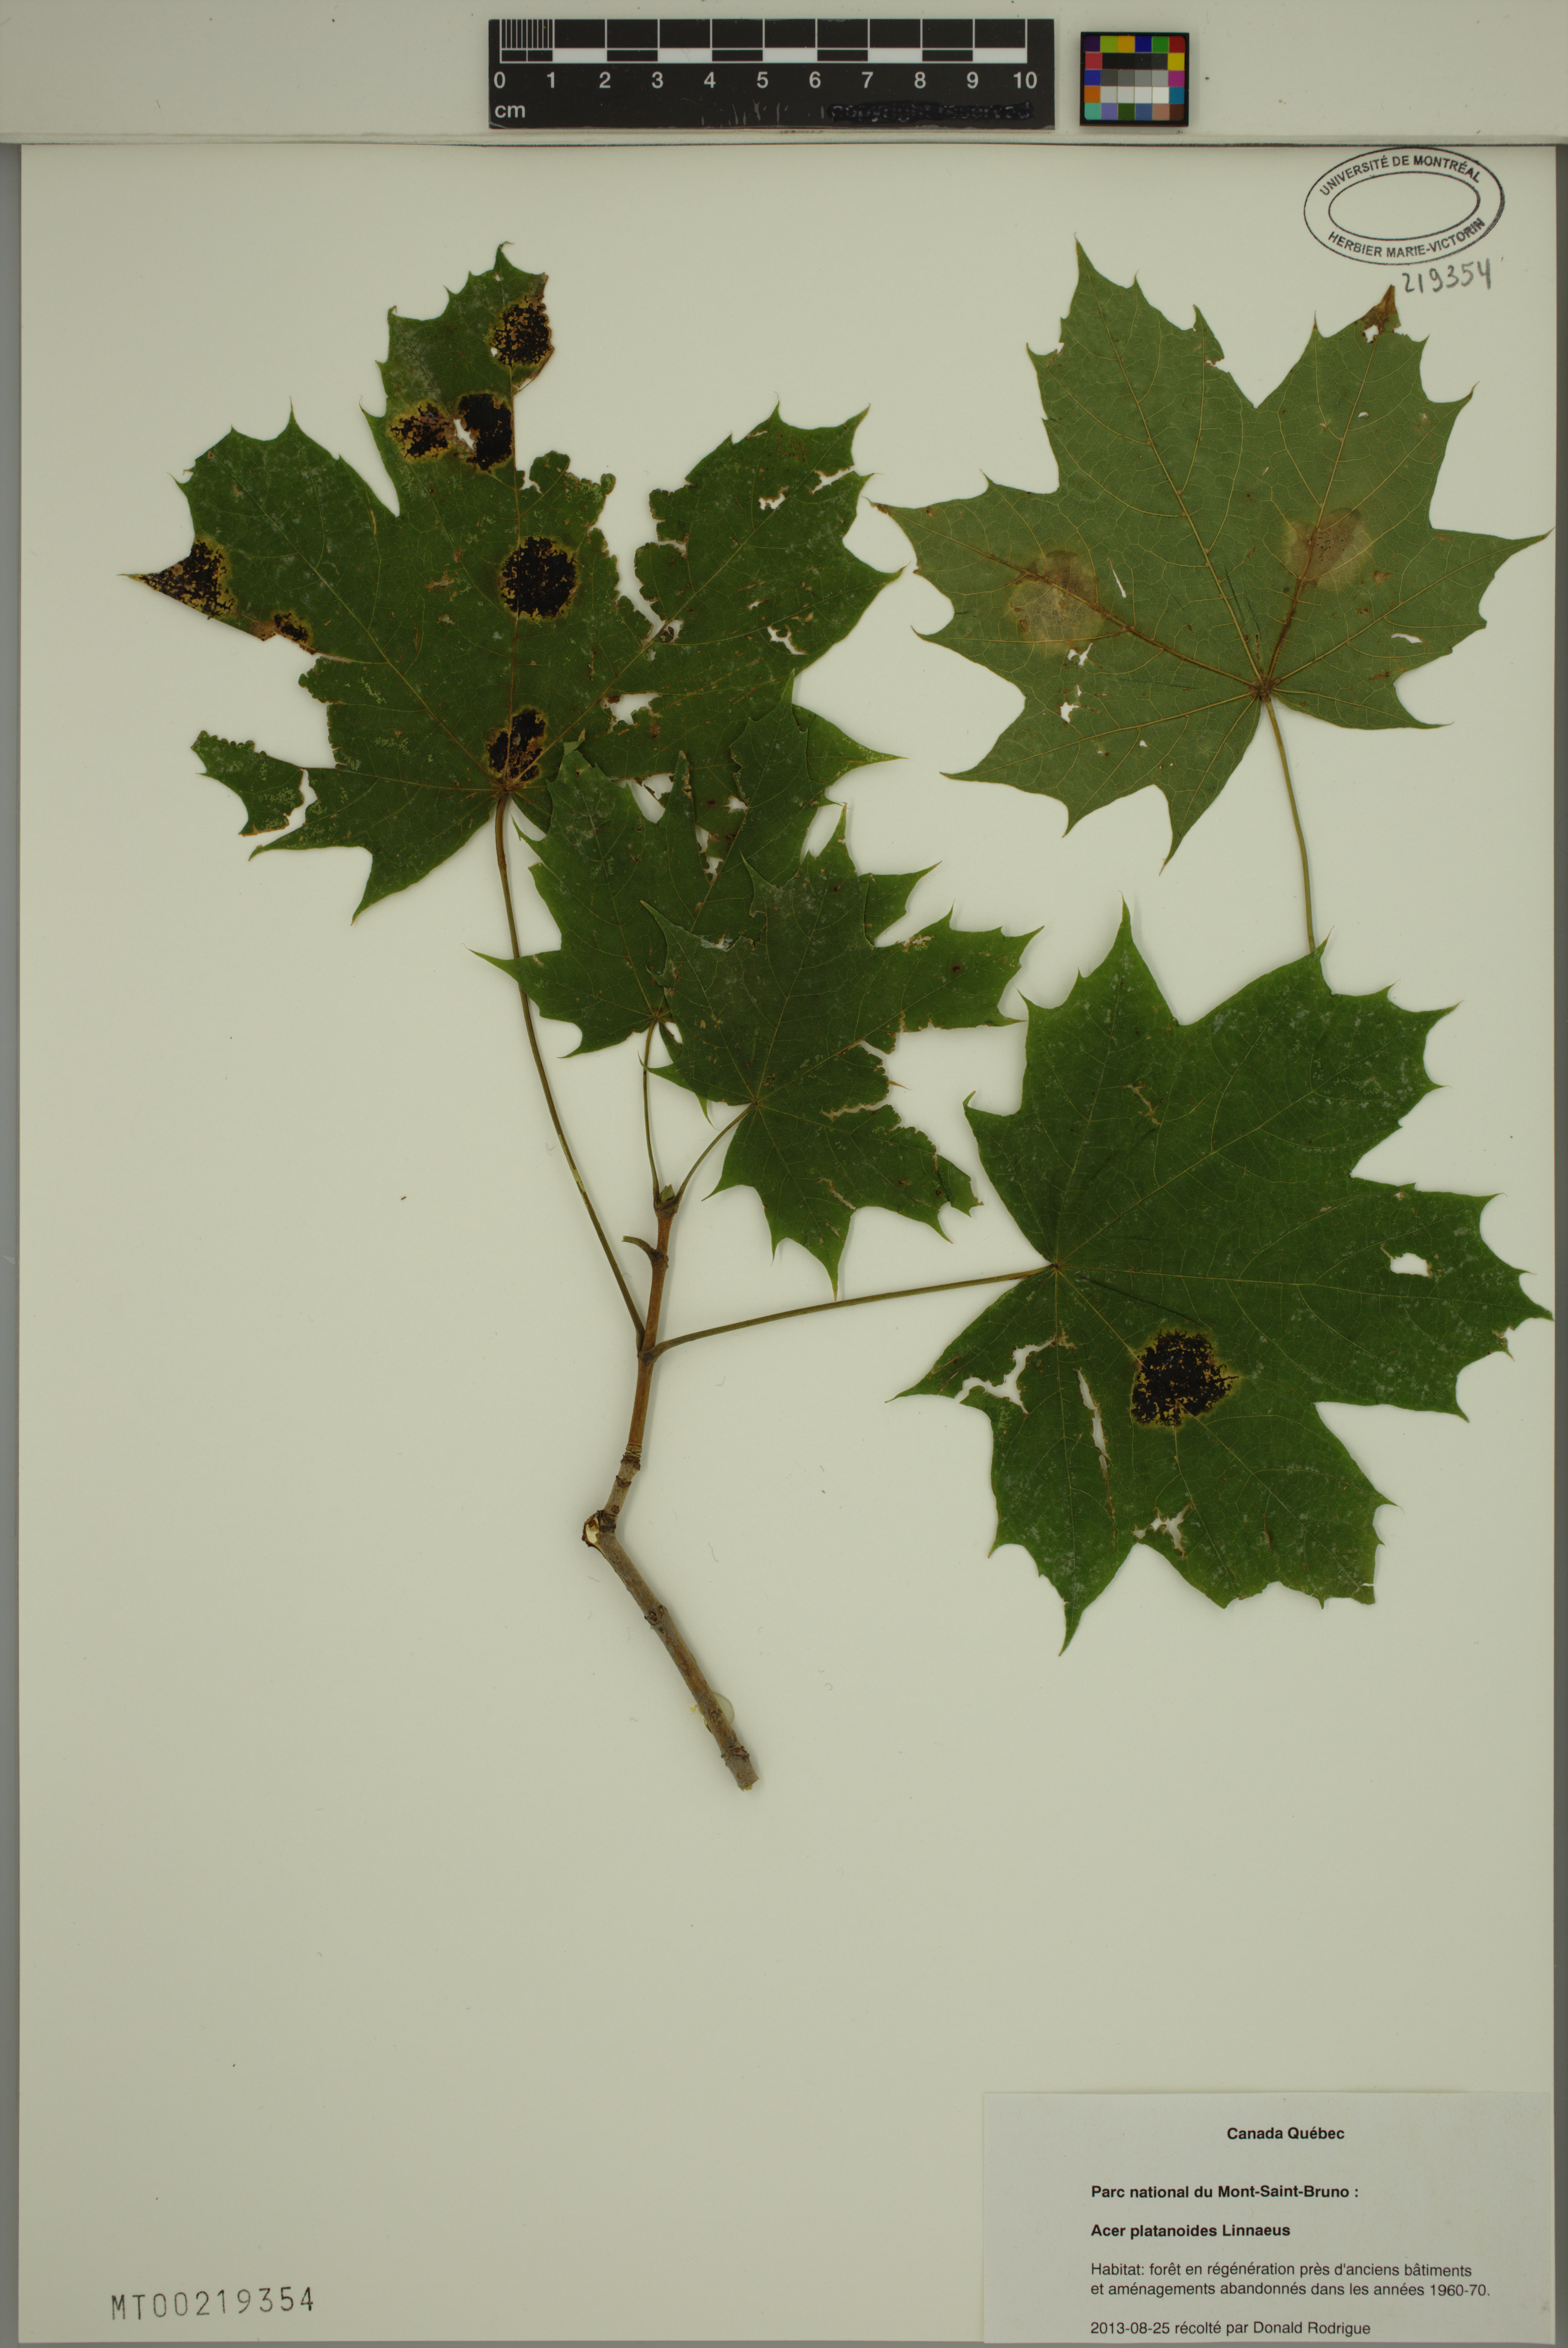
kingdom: Plantae
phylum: Tracheophyta
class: Magnoliopsida
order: Sapindales
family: Sapindaceae
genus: Acer
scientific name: Acer platanoides
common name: Norway maple
